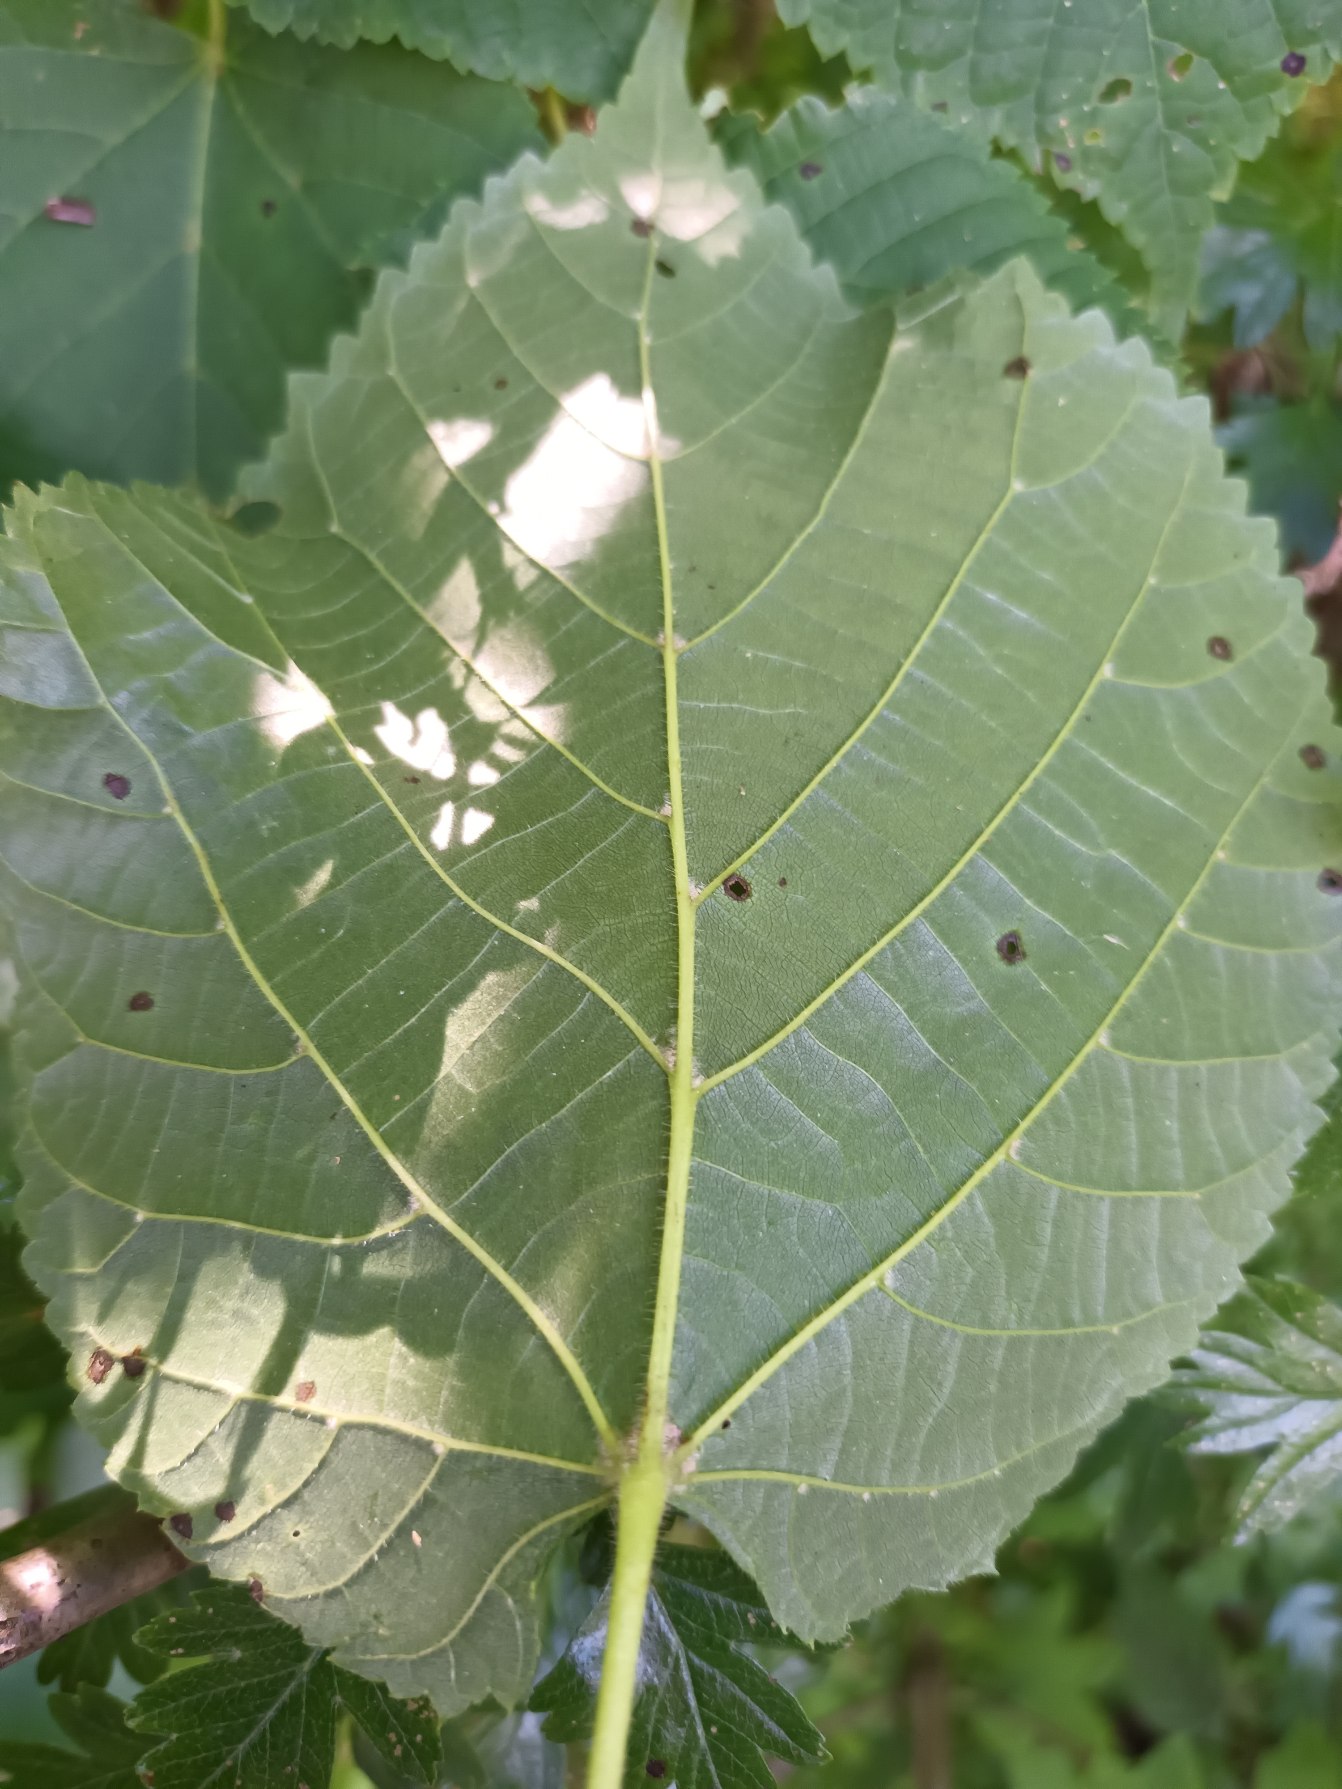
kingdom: Plantae
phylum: Tracheophyta
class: Magnoliopsida
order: Malvales
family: Malvaceae
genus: Tilia
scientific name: Tilia europaea
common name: Park-lind
